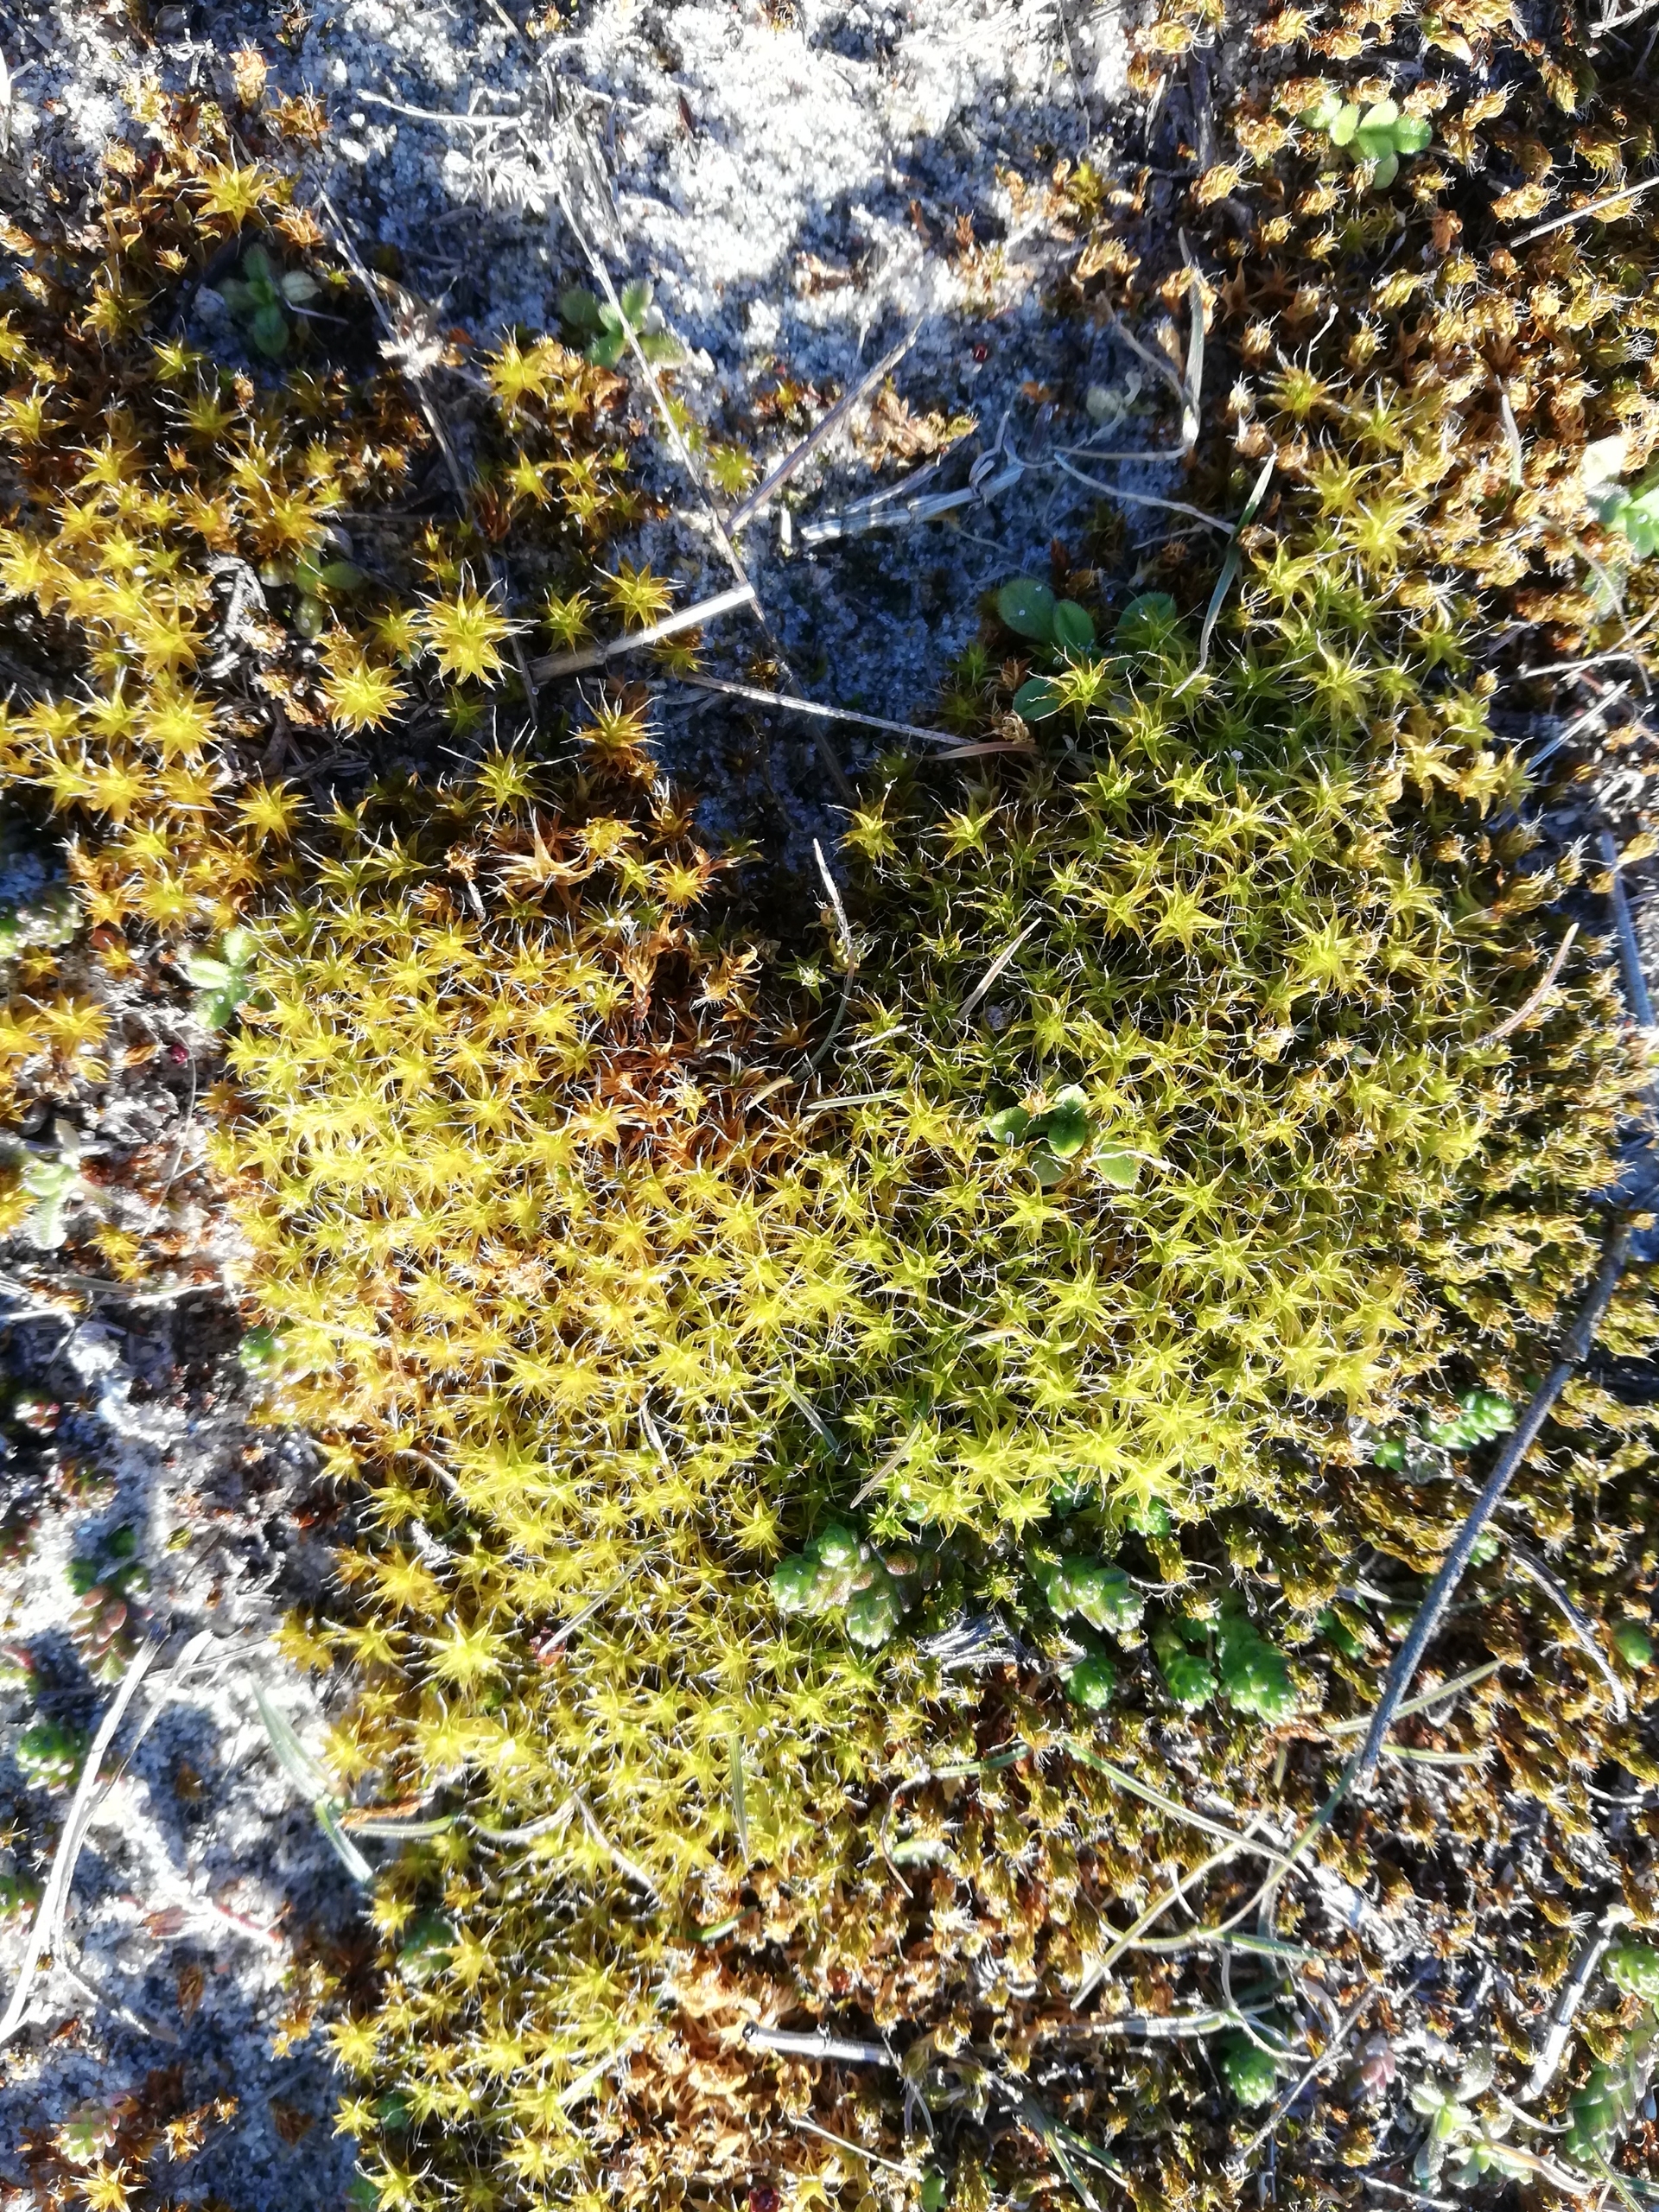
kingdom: Plantae
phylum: Bryophyta
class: Bryopsida
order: Pottiales
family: Pottiaceae
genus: Syntrichia
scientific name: Syntrichia ruralis
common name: Spidsbladet hårstjerne
